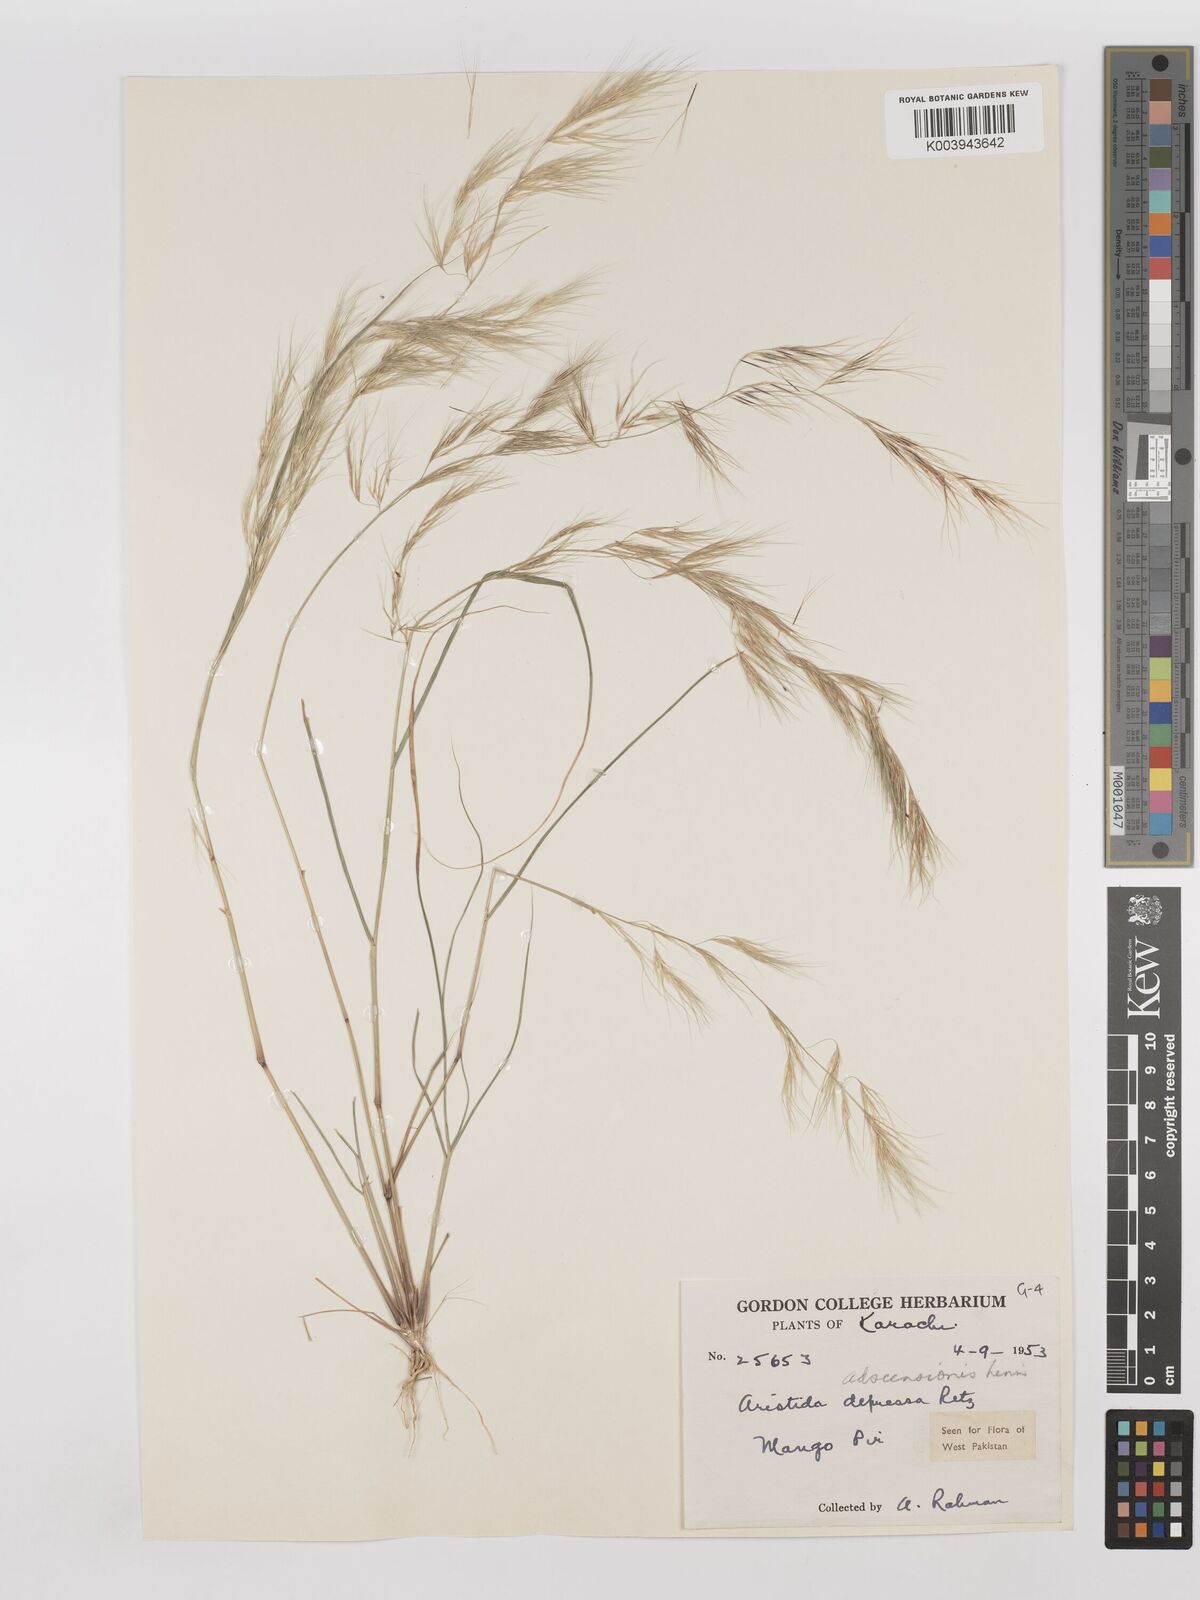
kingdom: Plantae
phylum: Tracheophyta
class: Liliopsida
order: Poales
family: Poaceae
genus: Aristida
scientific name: Aristida adscensionis
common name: Sixweeks threeawn
